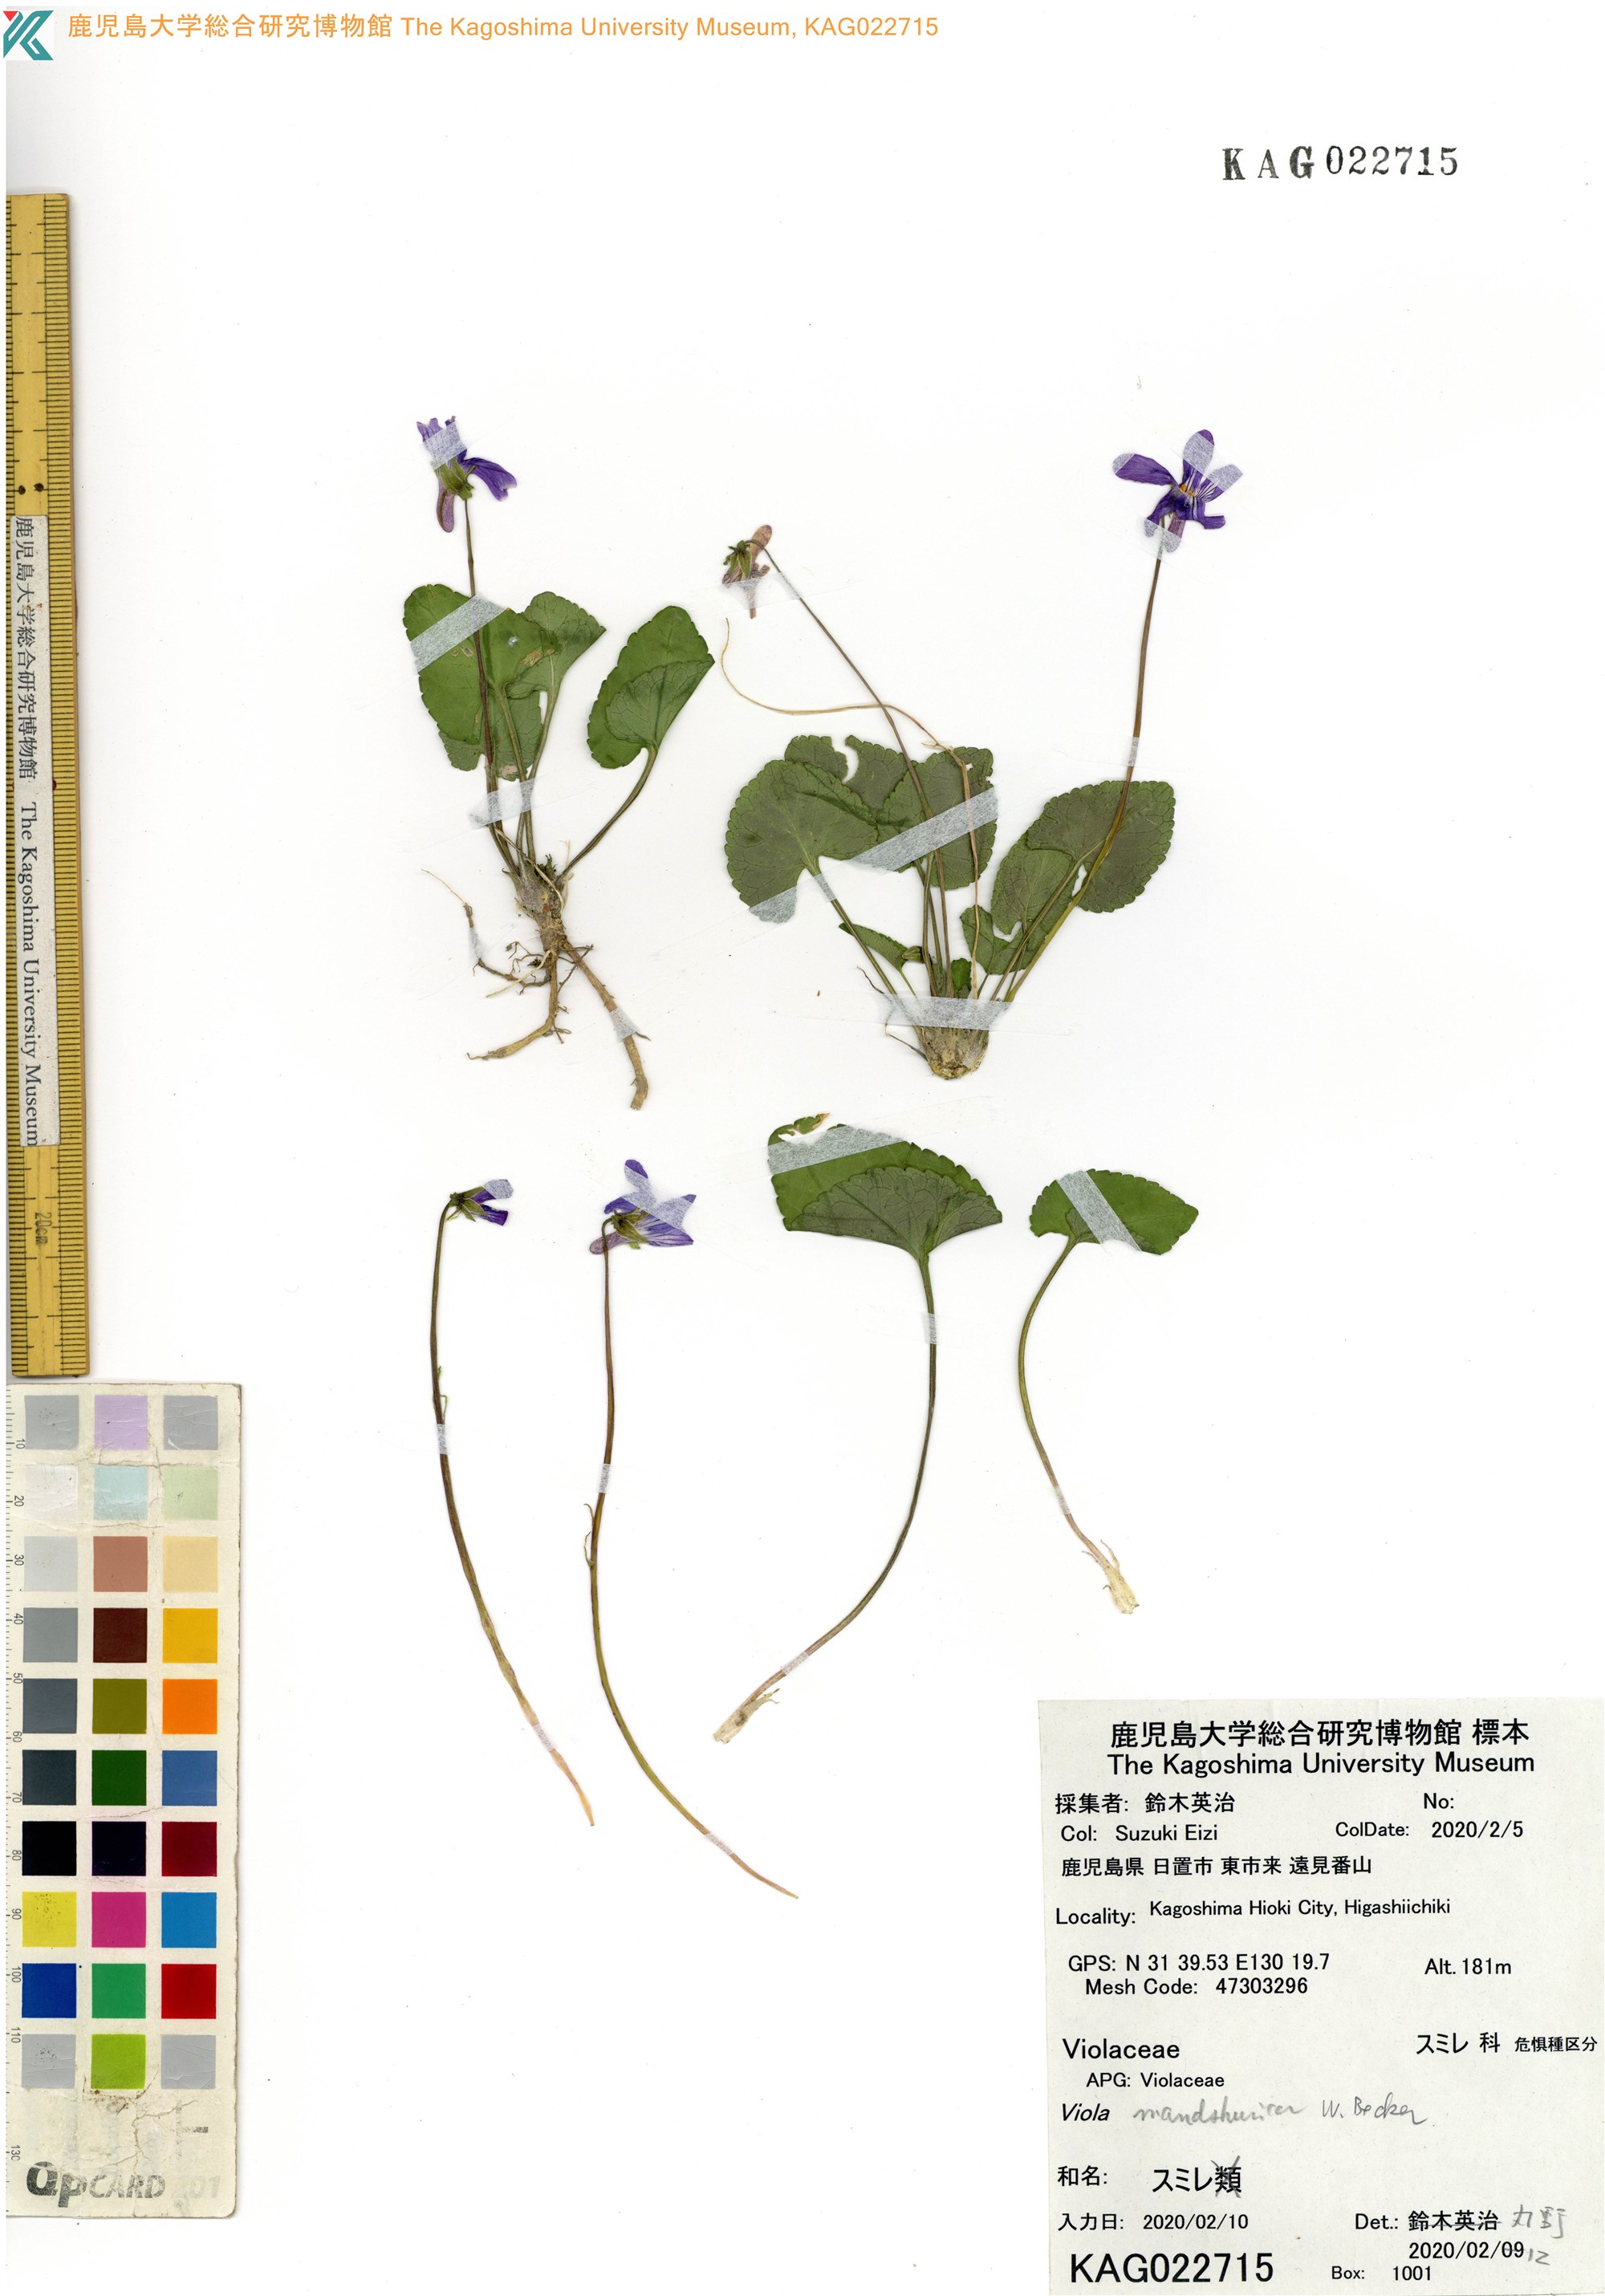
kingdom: Plantae
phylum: Tracheophyta
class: Magnoliopsida
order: Malpighiales
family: Violaceae
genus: Viola
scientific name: Viola mandshurica
